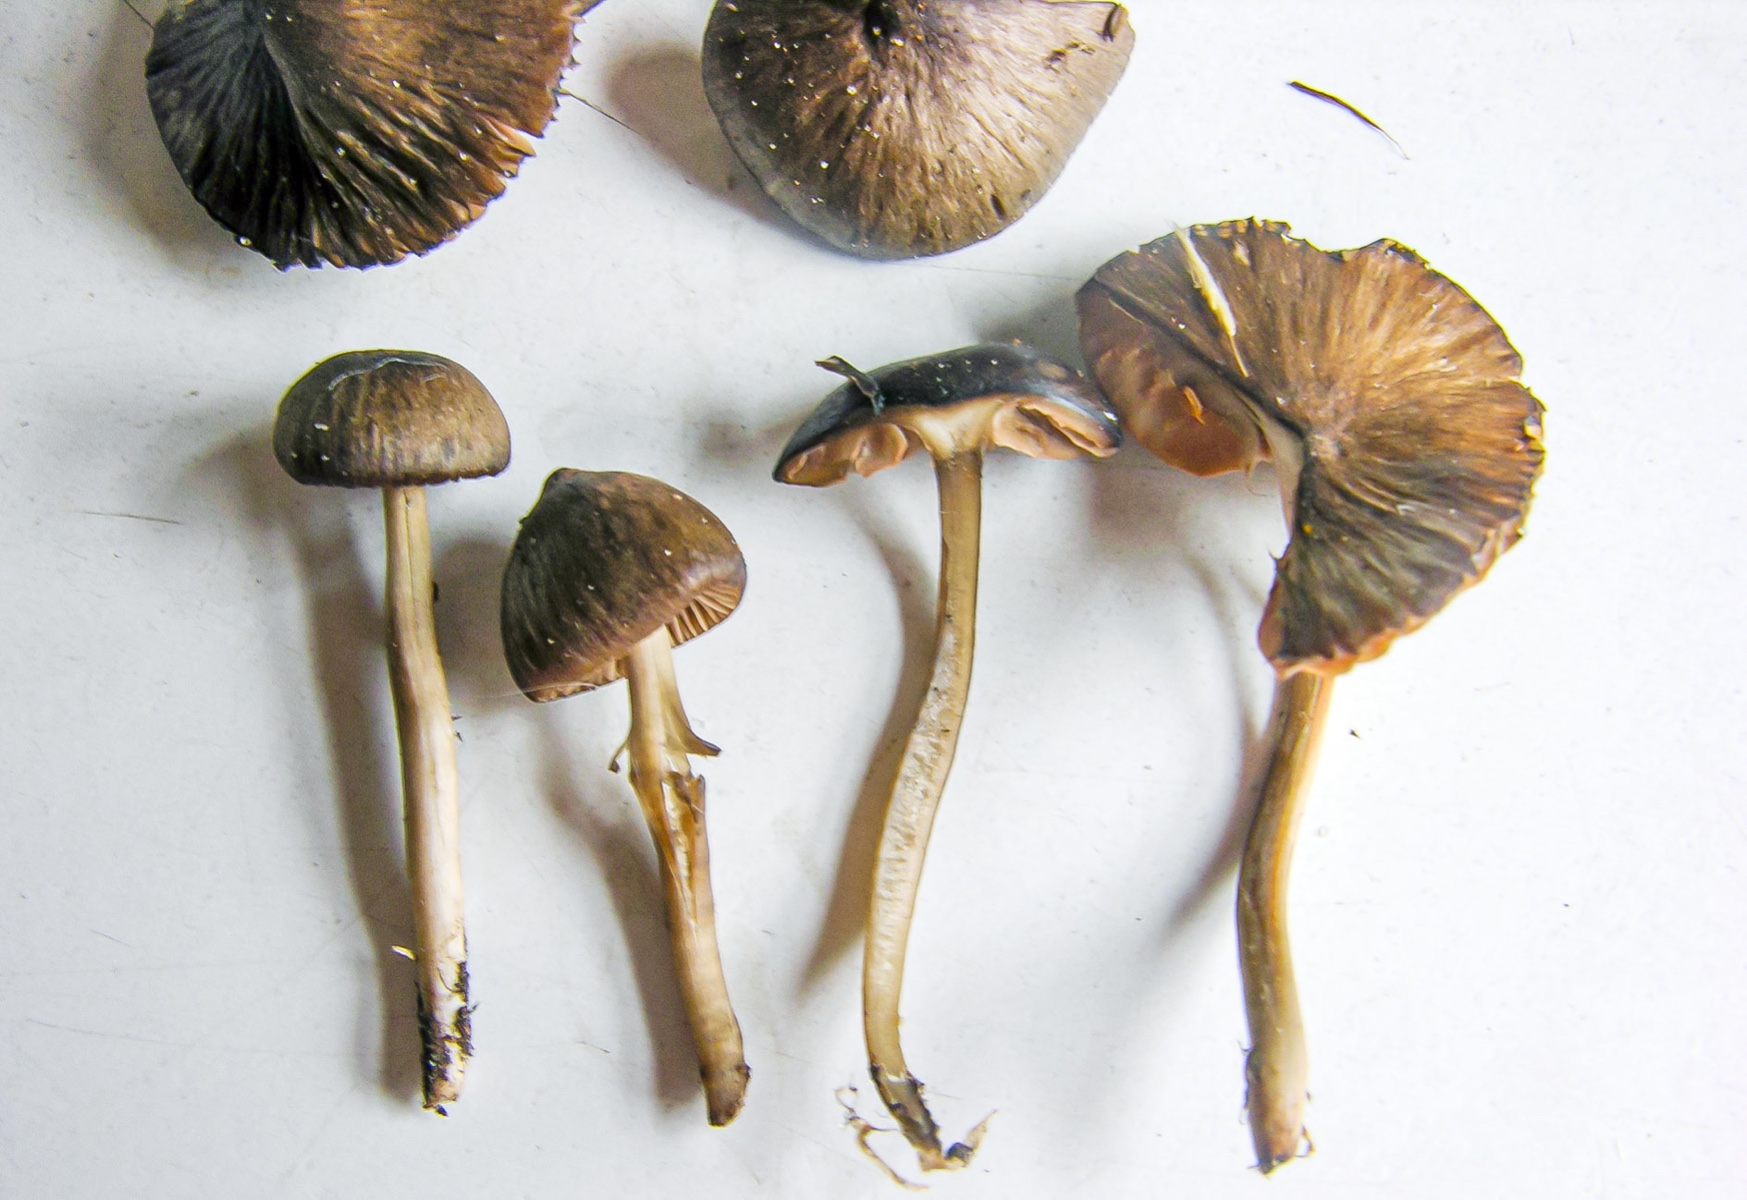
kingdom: Fungi
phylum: Basidiomycota
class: Agaricomycetes
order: Agaricales
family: Entolomataceae
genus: Entoloma
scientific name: Entoloma inutile
